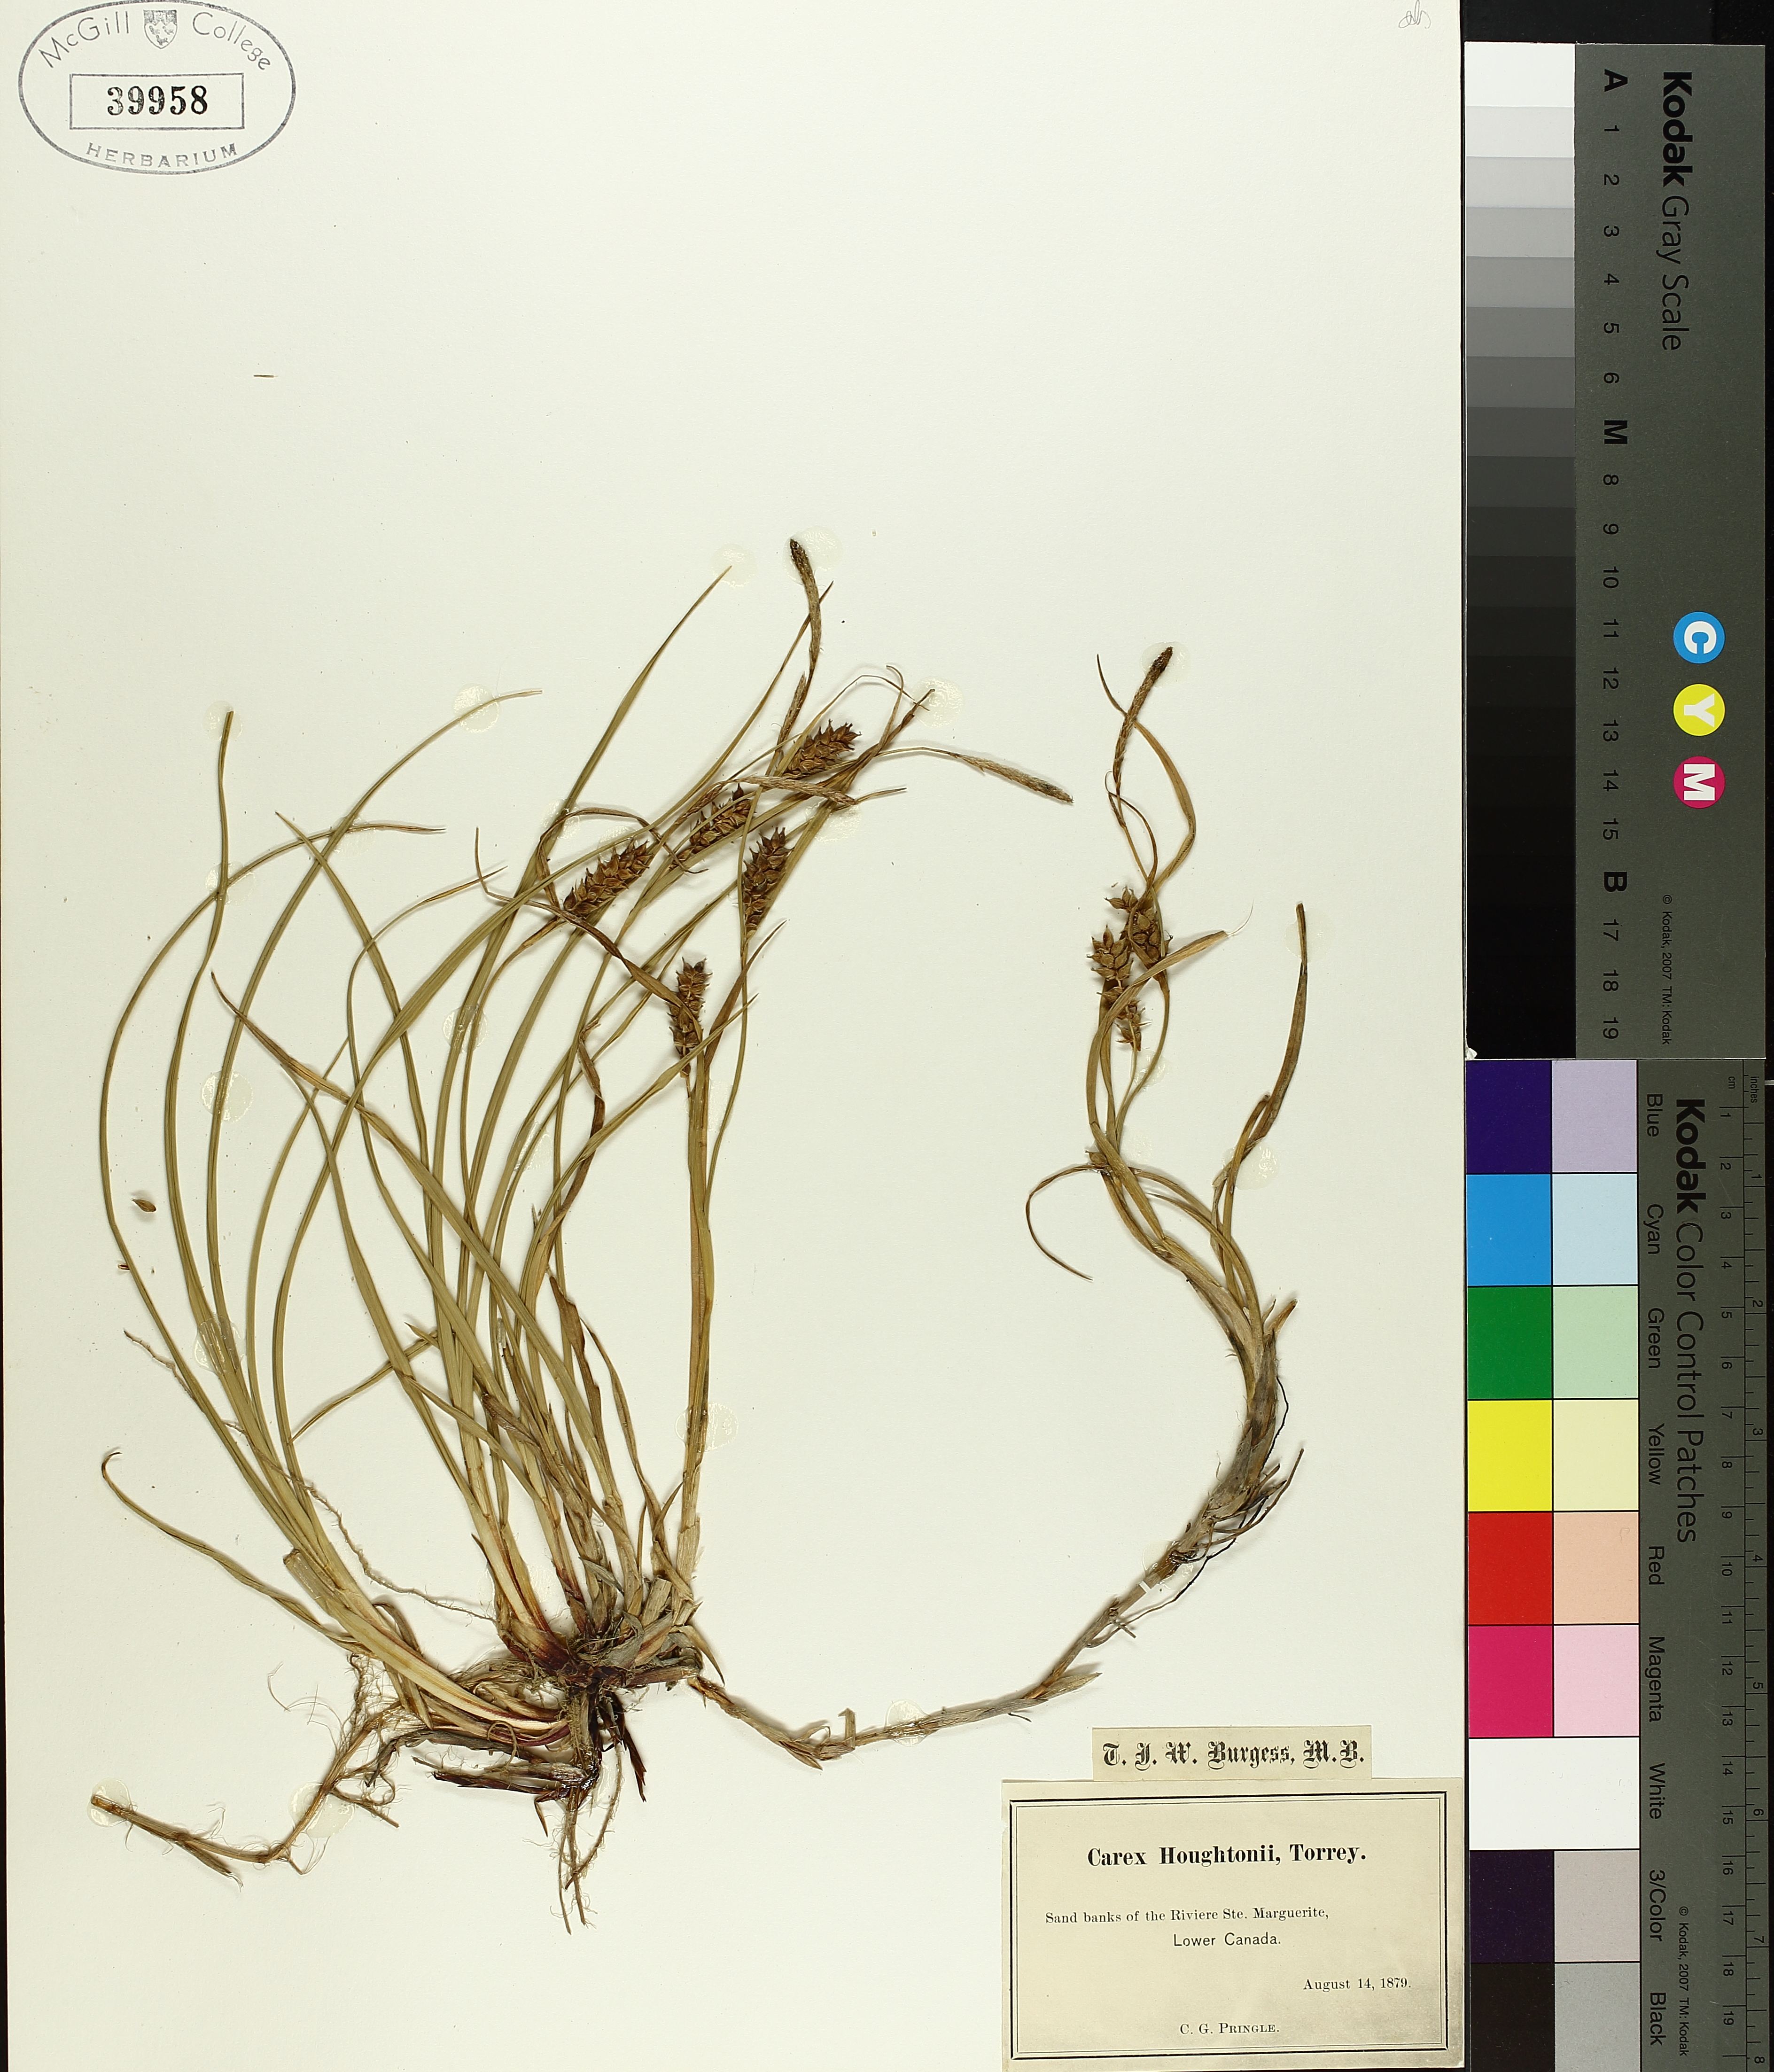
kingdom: Plantae
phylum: Tracheophyta
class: Liliopsida
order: Poales
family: Cyperaceae
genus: Carex
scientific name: Carex houghtoniana
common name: Houghton's sedge
